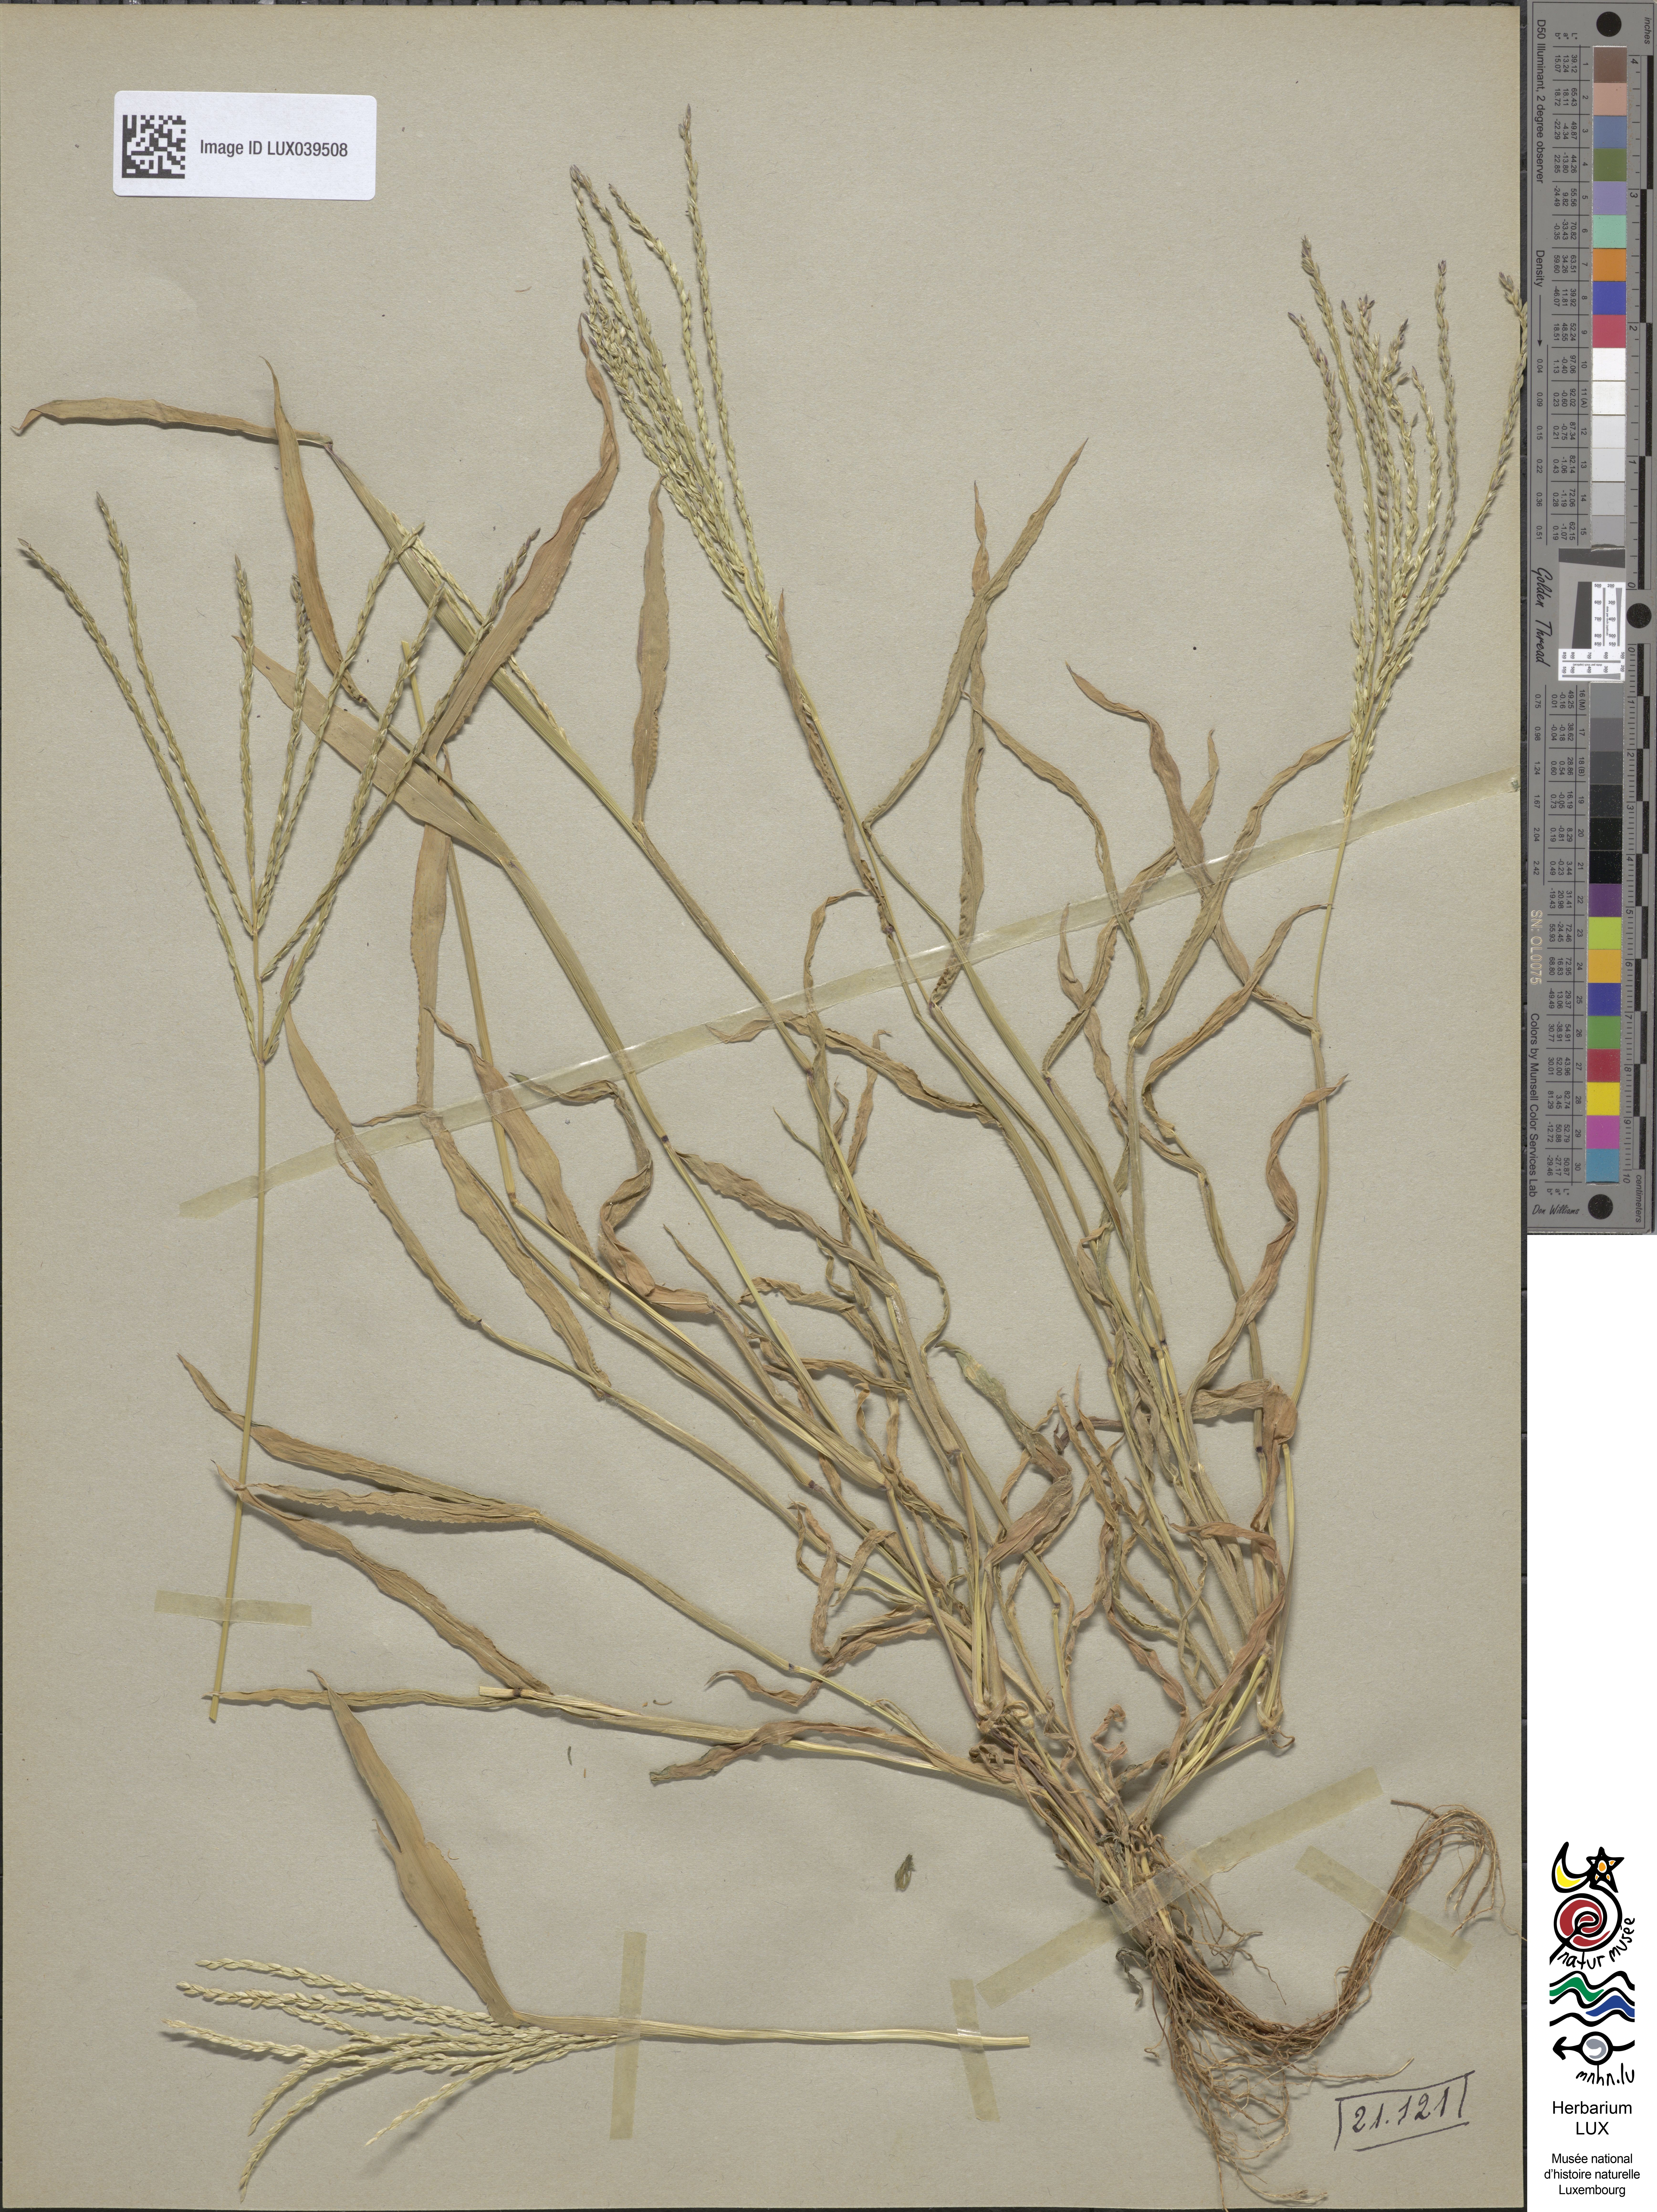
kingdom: Plantae
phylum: Tracheophyta
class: Liliopsida
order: Poales
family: Poaceae
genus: Digitaria
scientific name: Digitaria sanguinalis
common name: Hairy crabgrass
